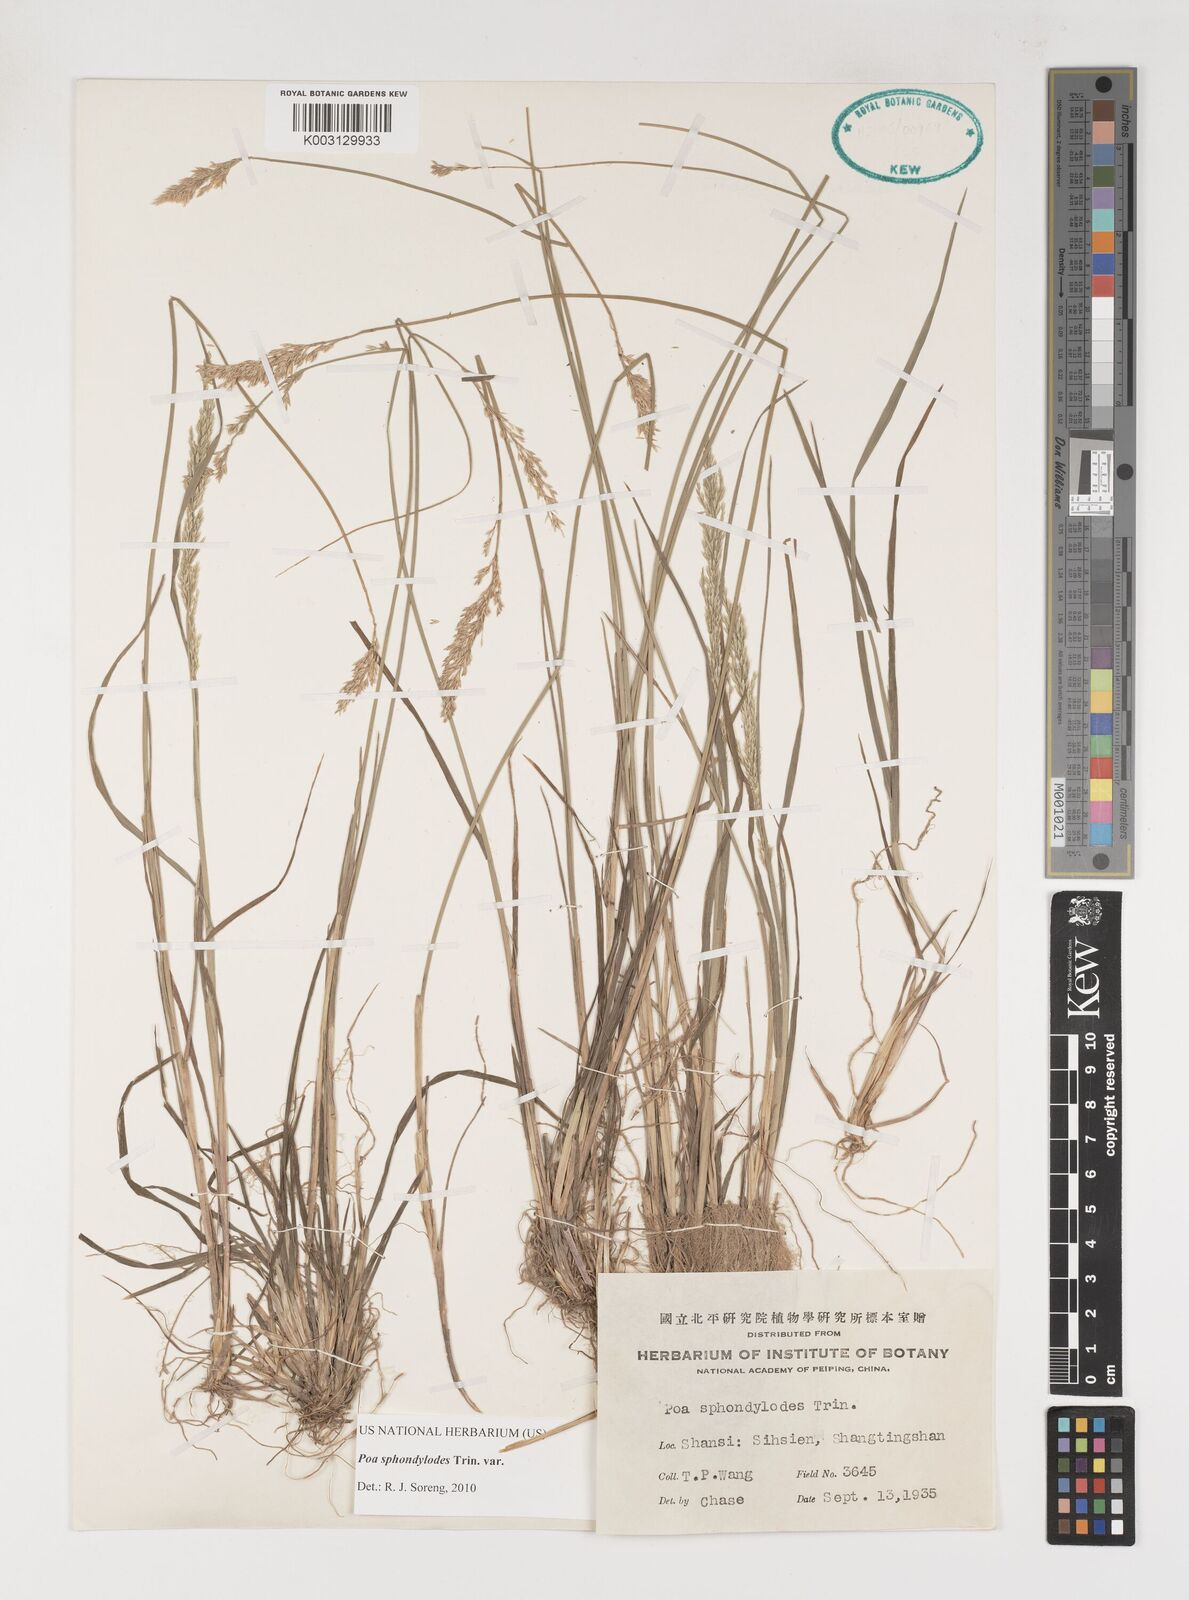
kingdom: Plantae
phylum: Tracheophyta
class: Liliopsida
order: Poales
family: Poaceae
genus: Poa
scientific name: Poa sphondylodes
